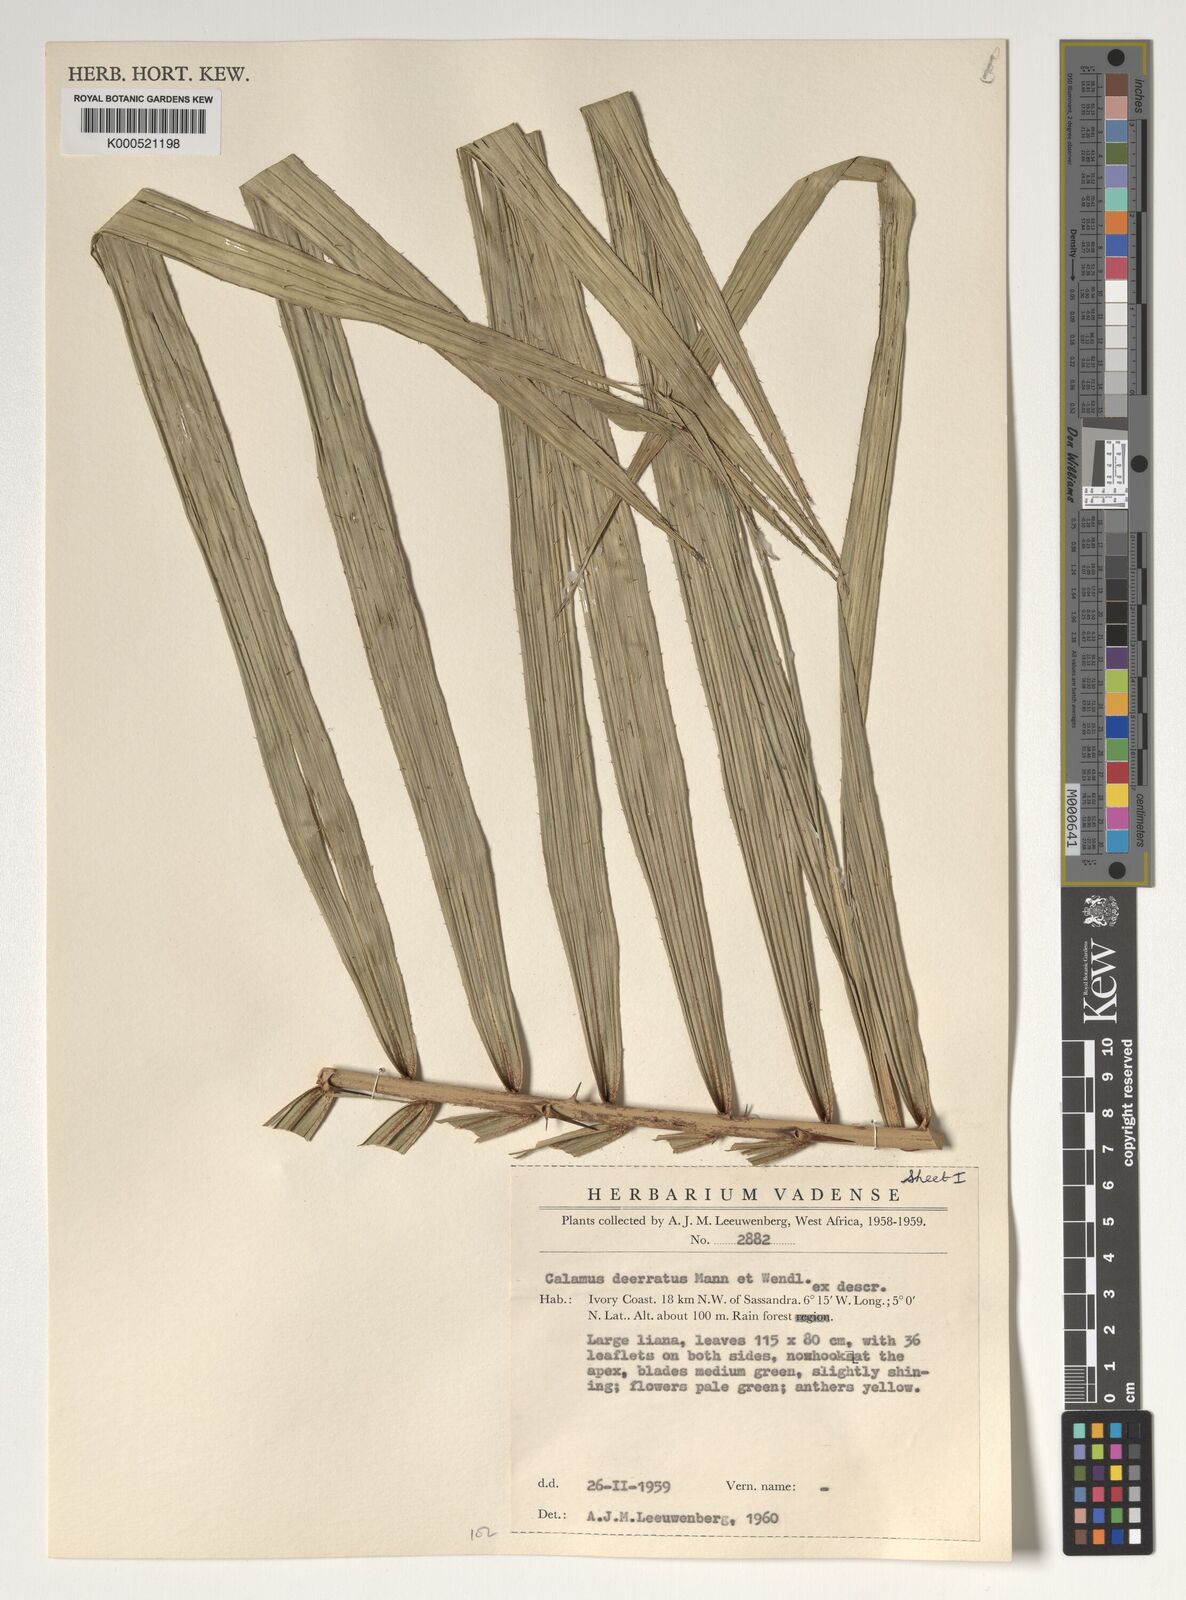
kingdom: Plantae
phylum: Tracheophyta
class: Liliopsida
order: Arecales
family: Arecaceae
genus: Calamus
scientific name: Calamus deerratus
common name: Rattan
